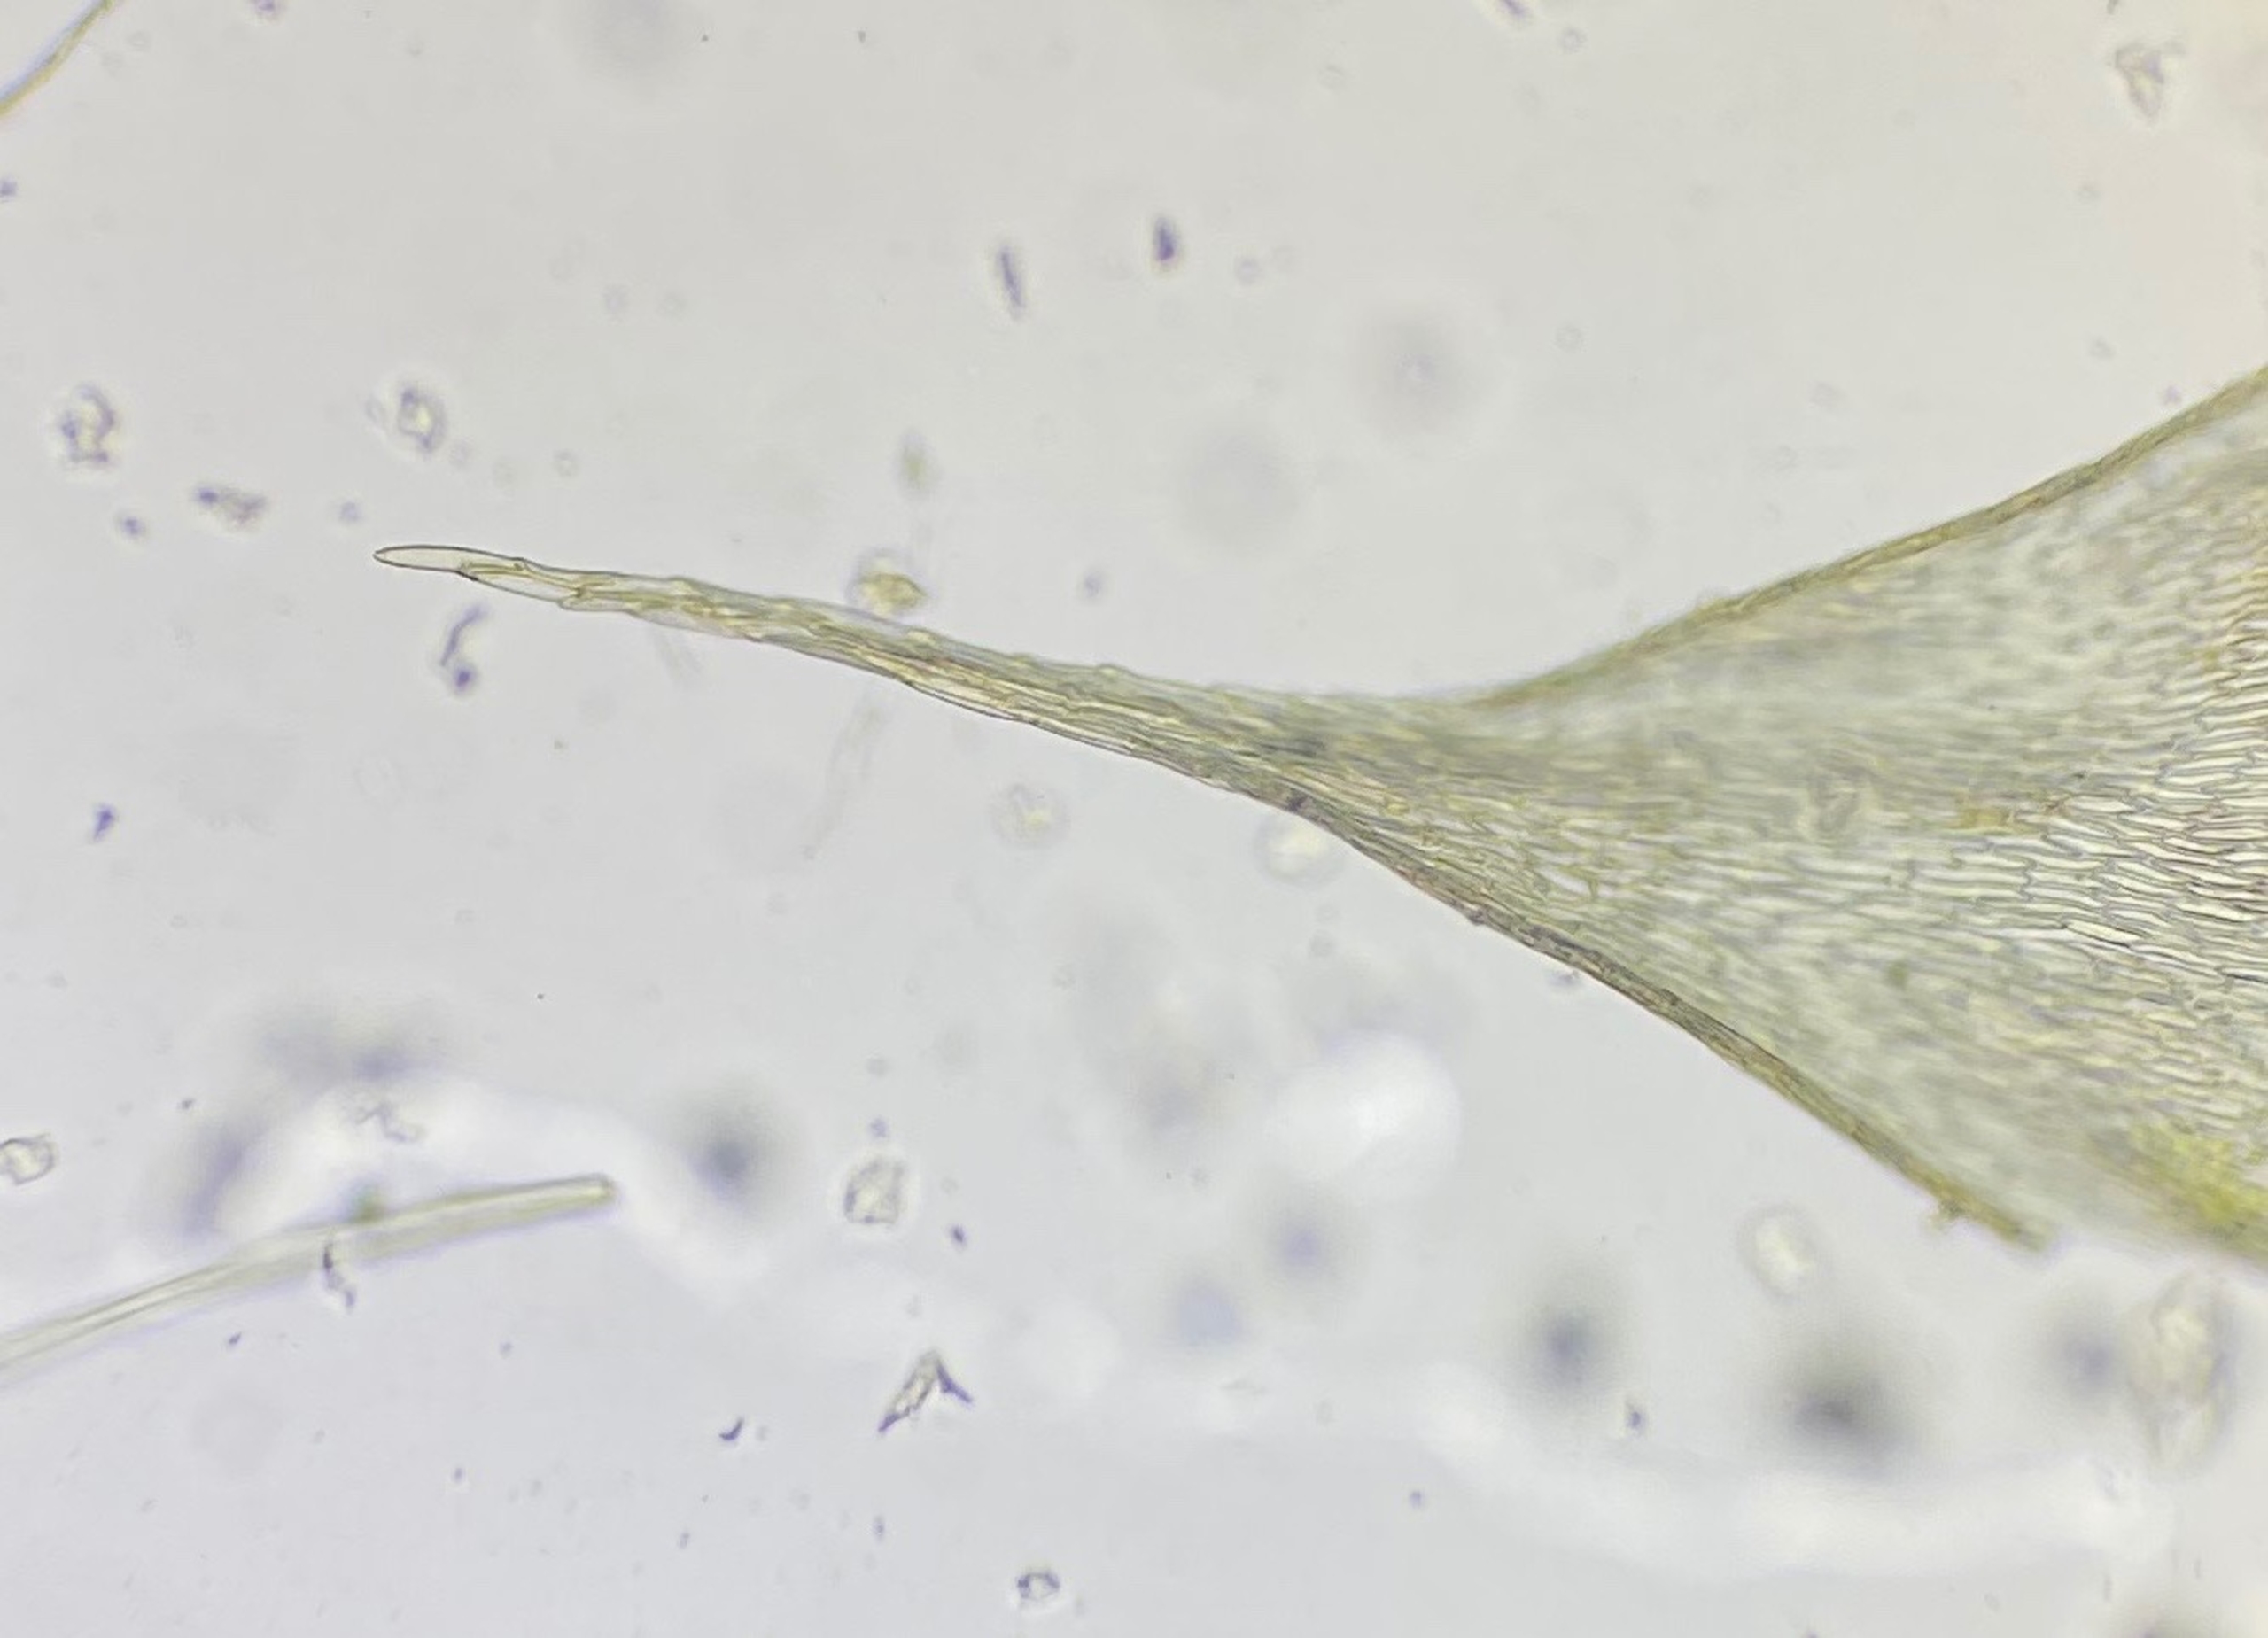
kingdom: Plantae
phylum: Bryophyta
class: Bryopsida
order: Hypnales
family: Brachytheciaceae
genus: Brachythecium
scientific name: Brachythecium albicans
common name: Hvidlig kortkapsel
